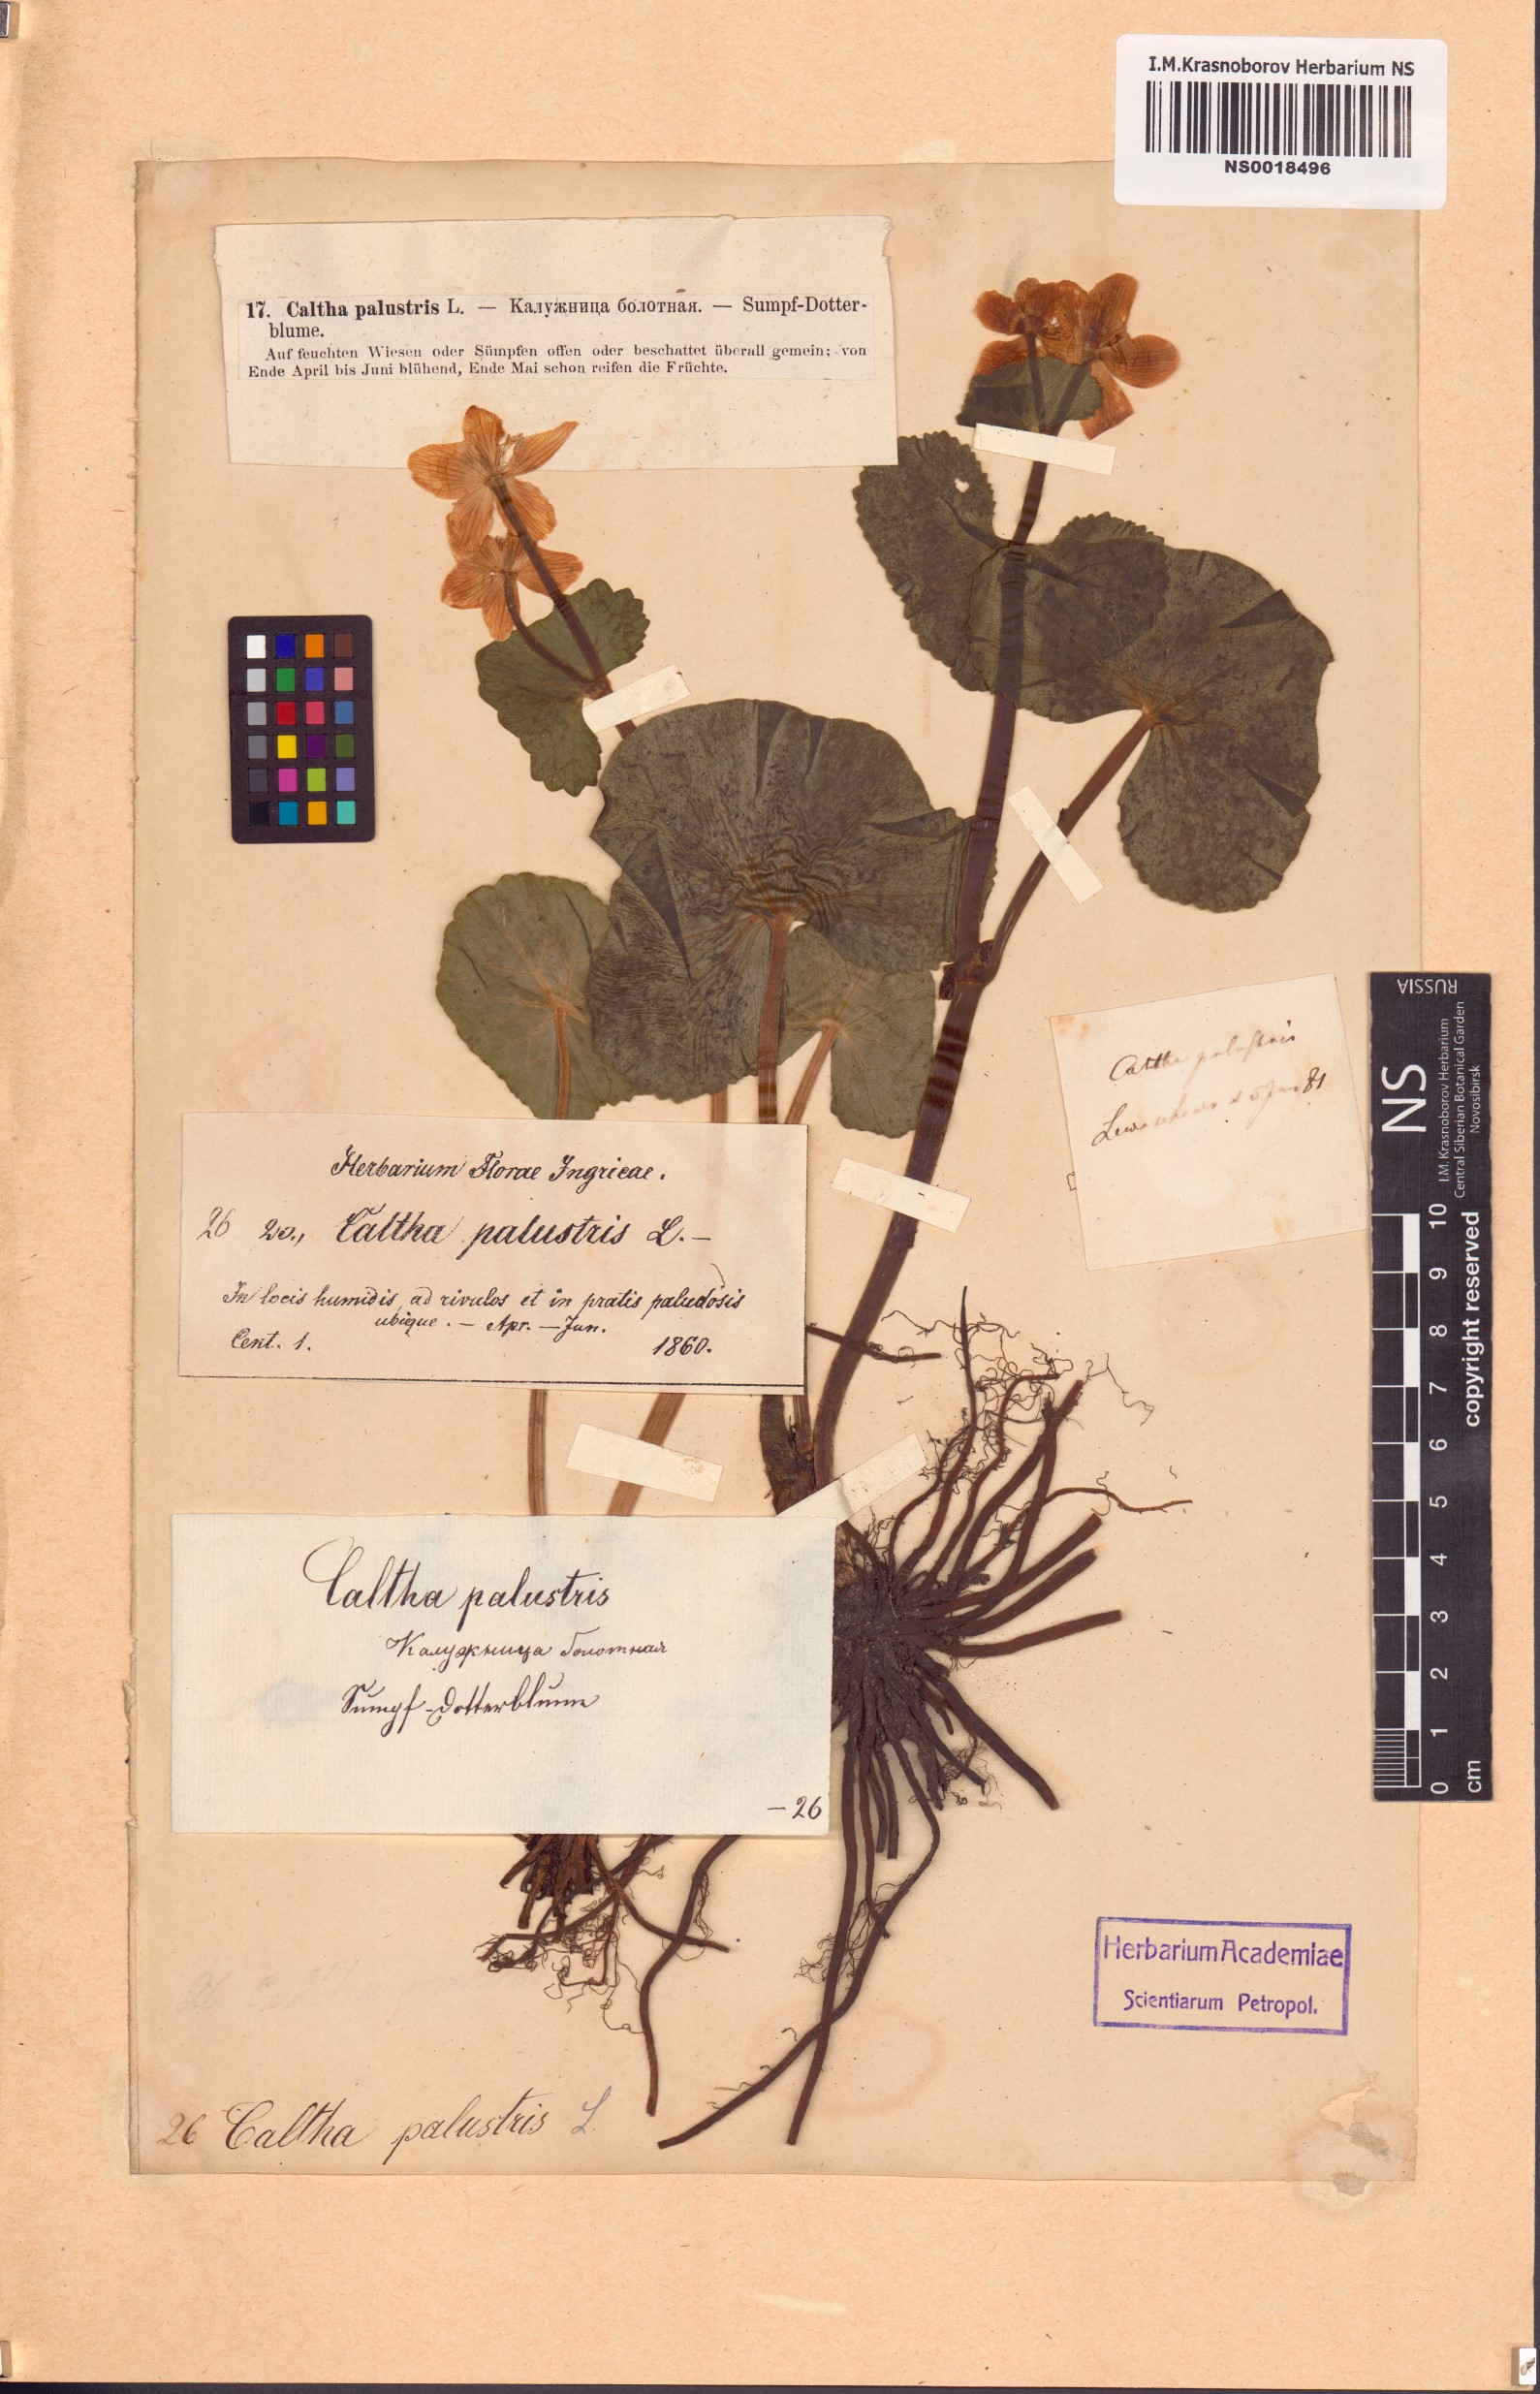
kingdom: Plantae
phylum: Tracheophyta
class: Magnoliopsida
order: Ranunculales
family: Ranunculaceae
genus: Caltha
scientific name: Caltha palustris
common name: Marsh marigold
